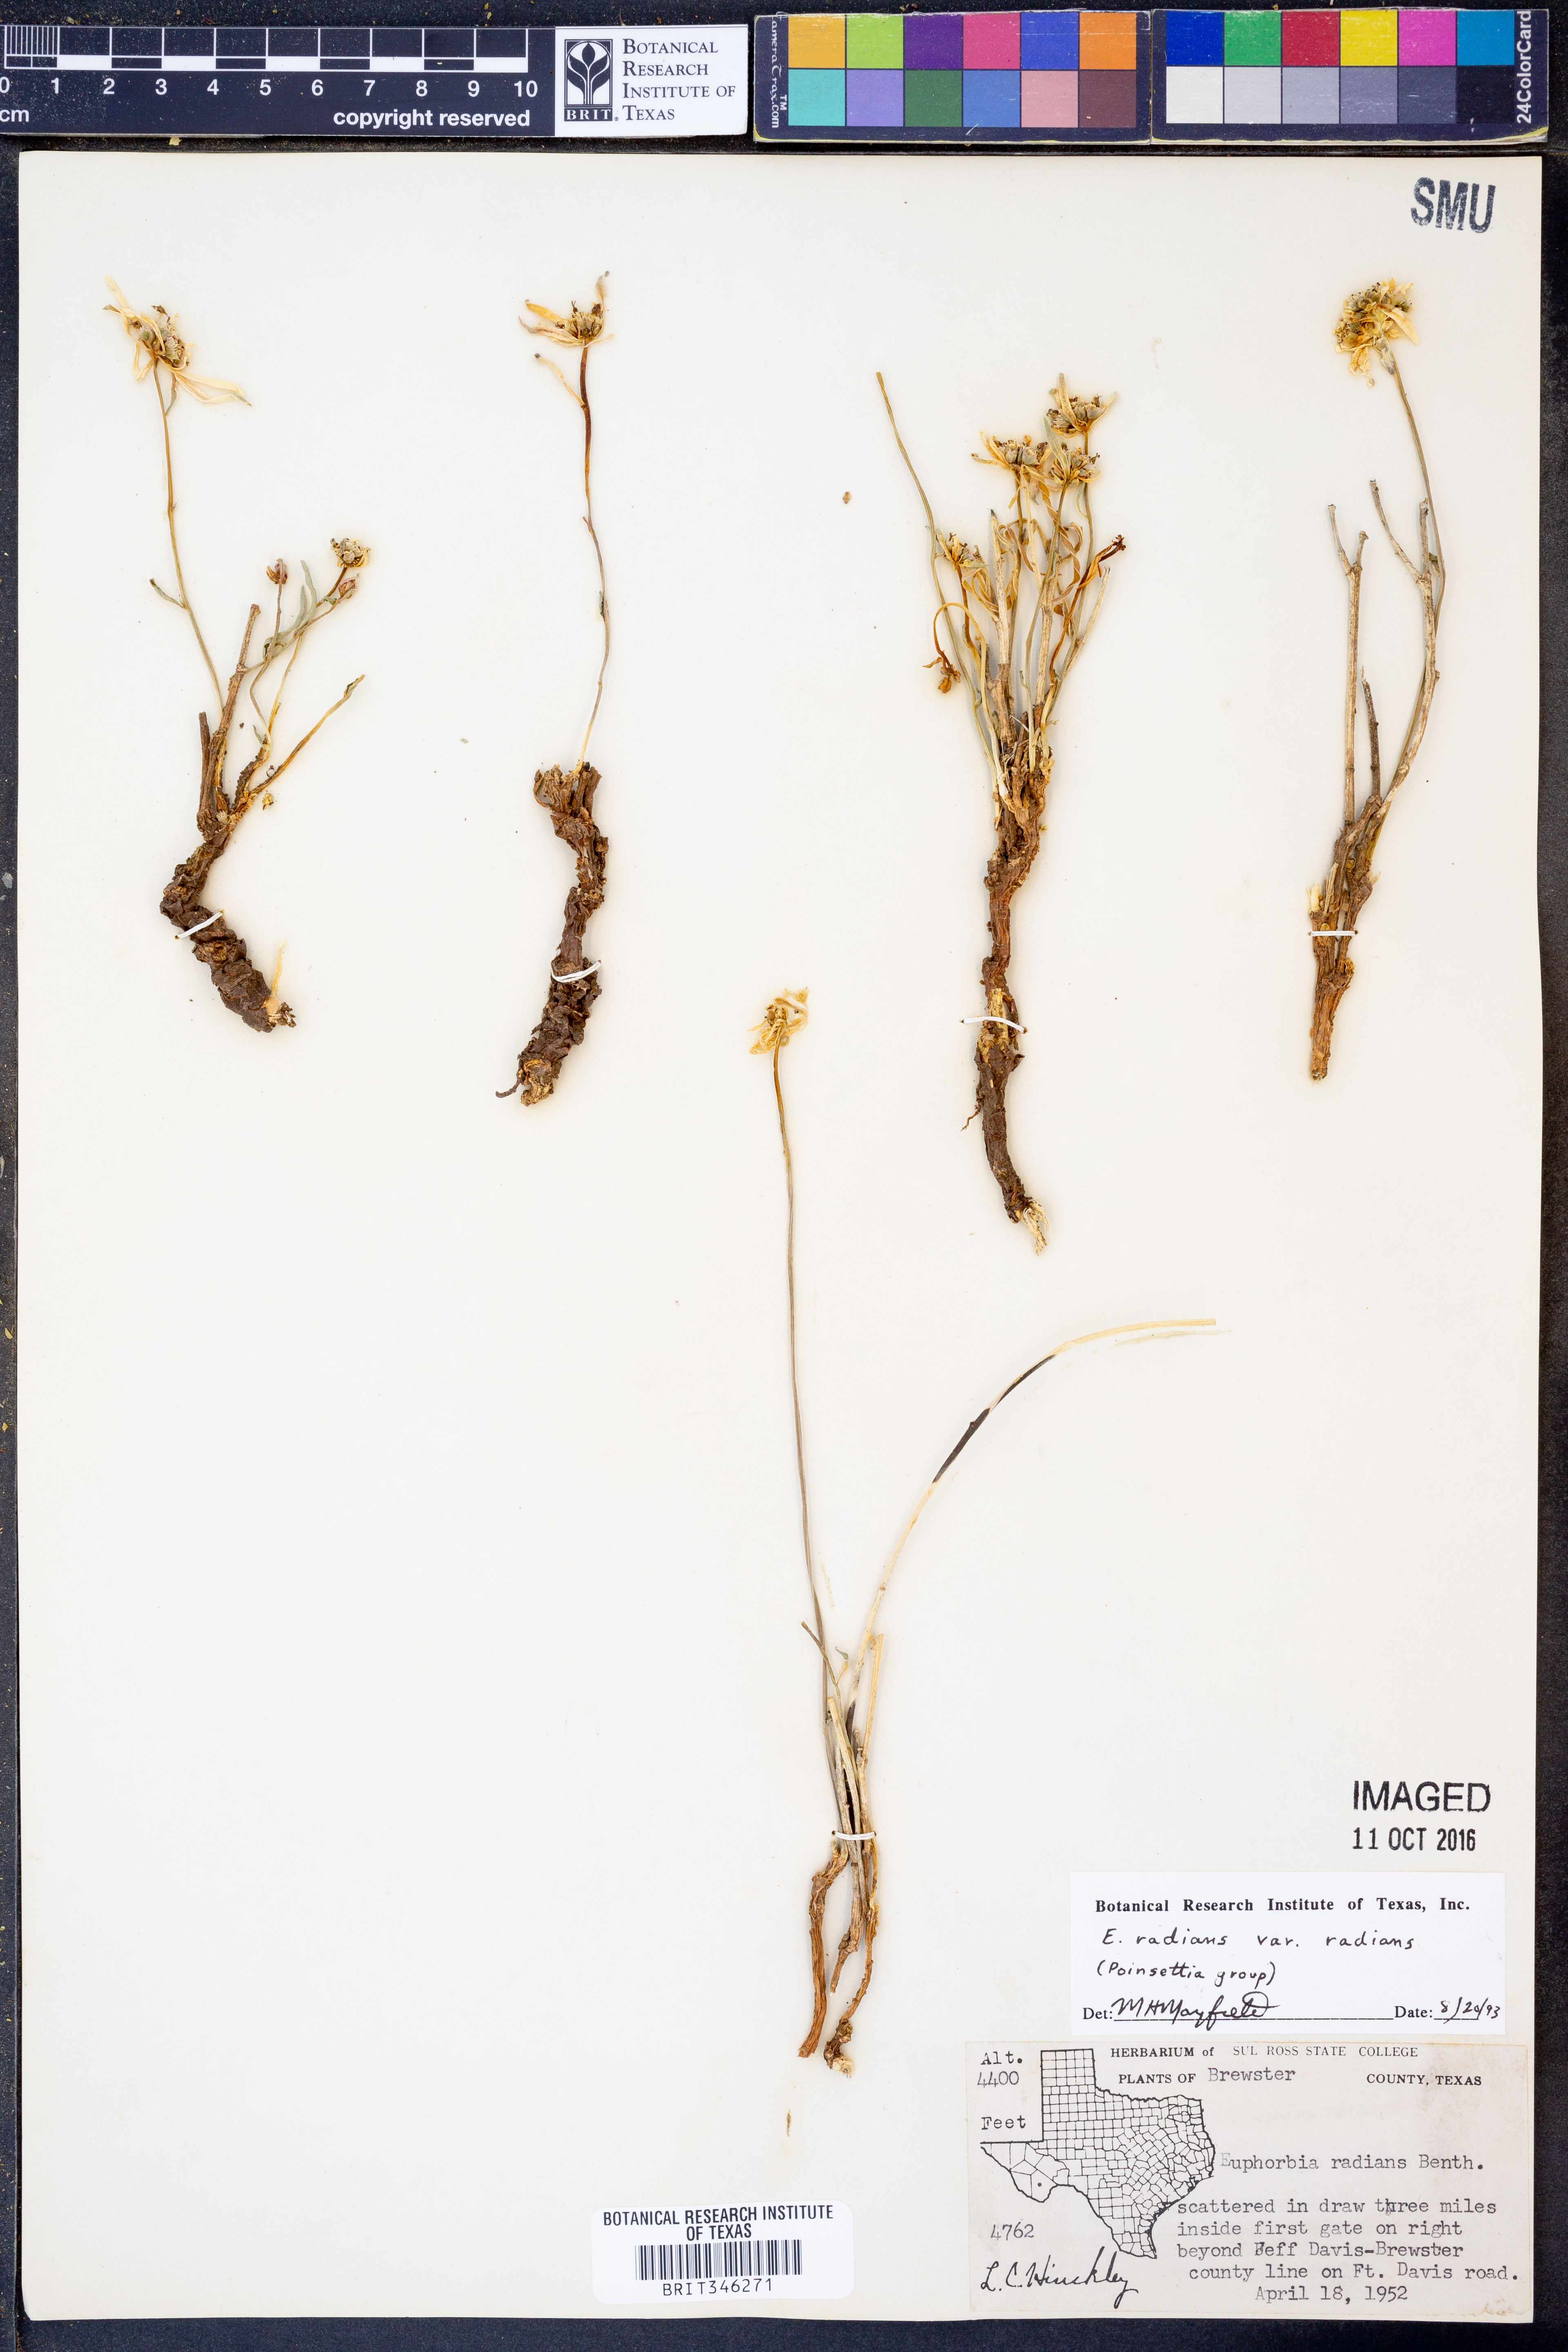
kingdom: Plantae
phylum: Tracheophyta
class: Magnoliopsida
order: Malpighiales
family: Euphorbiaceae
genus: Euphorbia
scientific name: Euphorbia radians
